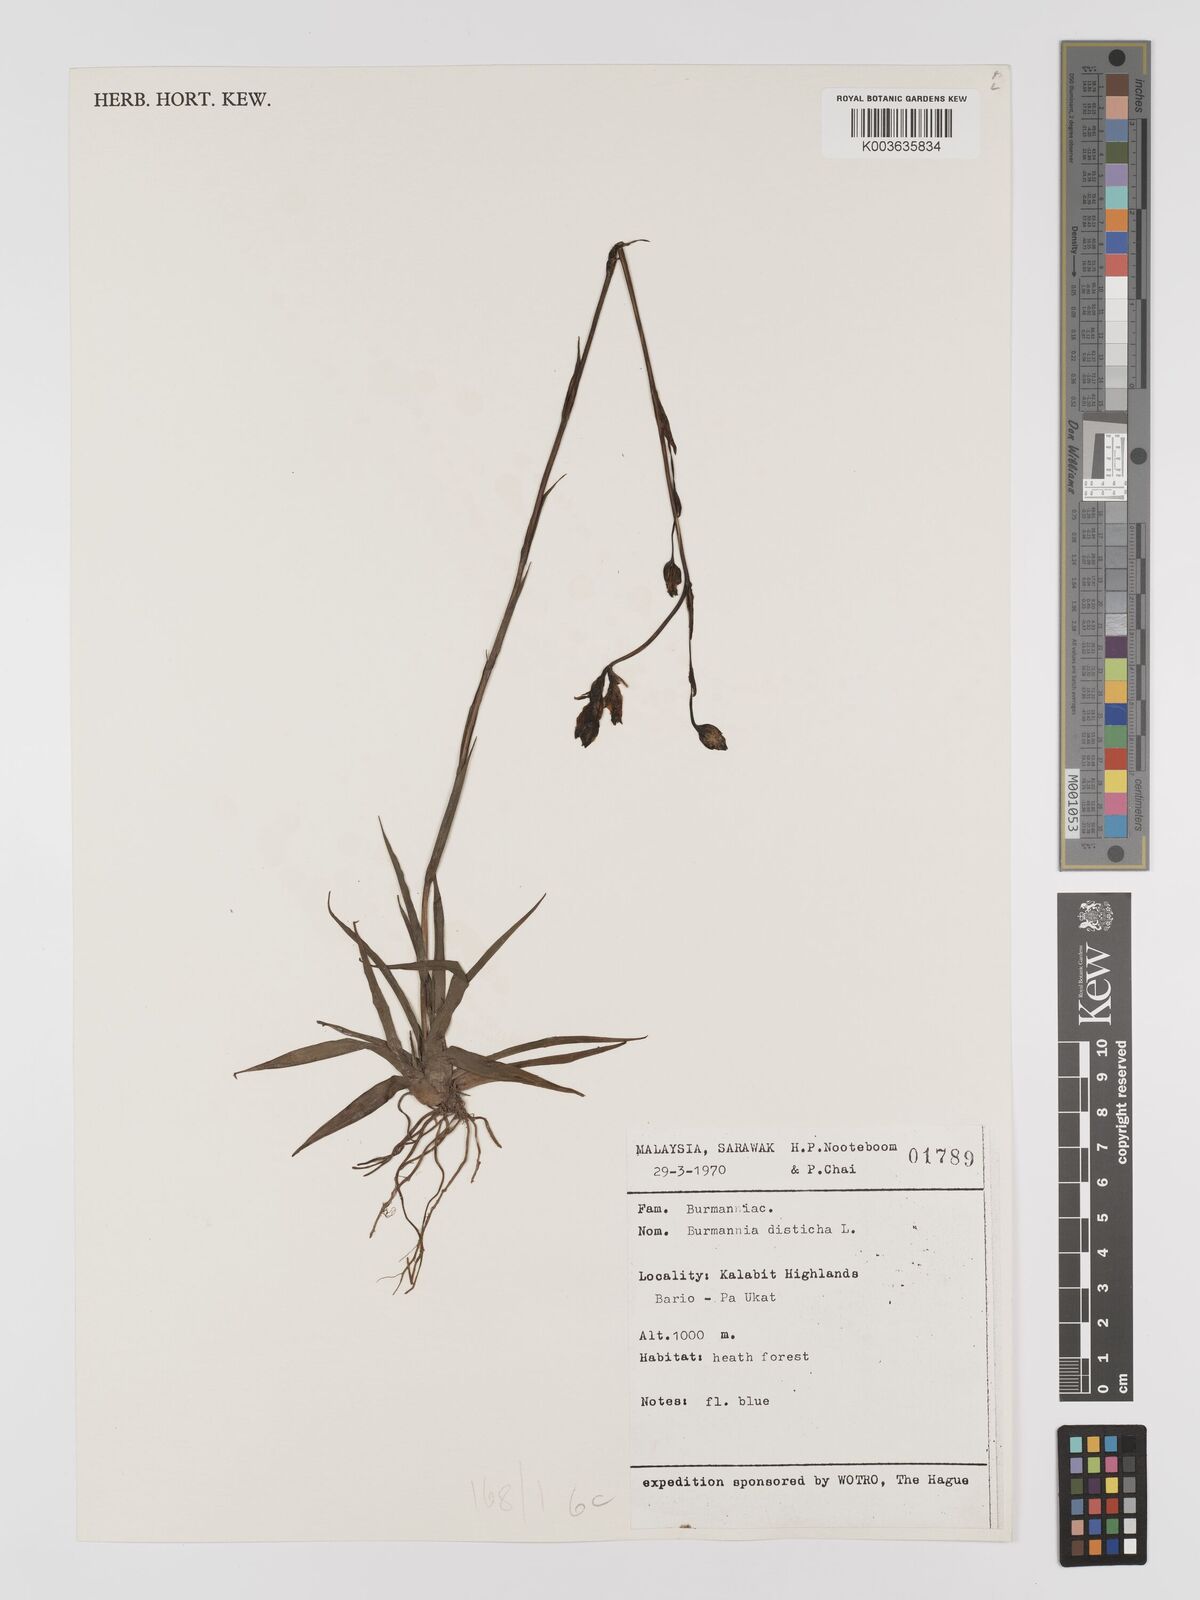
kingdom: Plantae
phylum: Tracheophyta
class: Liliopsida
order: Dioscoreales
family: Burmanniaceae
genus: Burmannia
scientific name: Burmannia disticha
